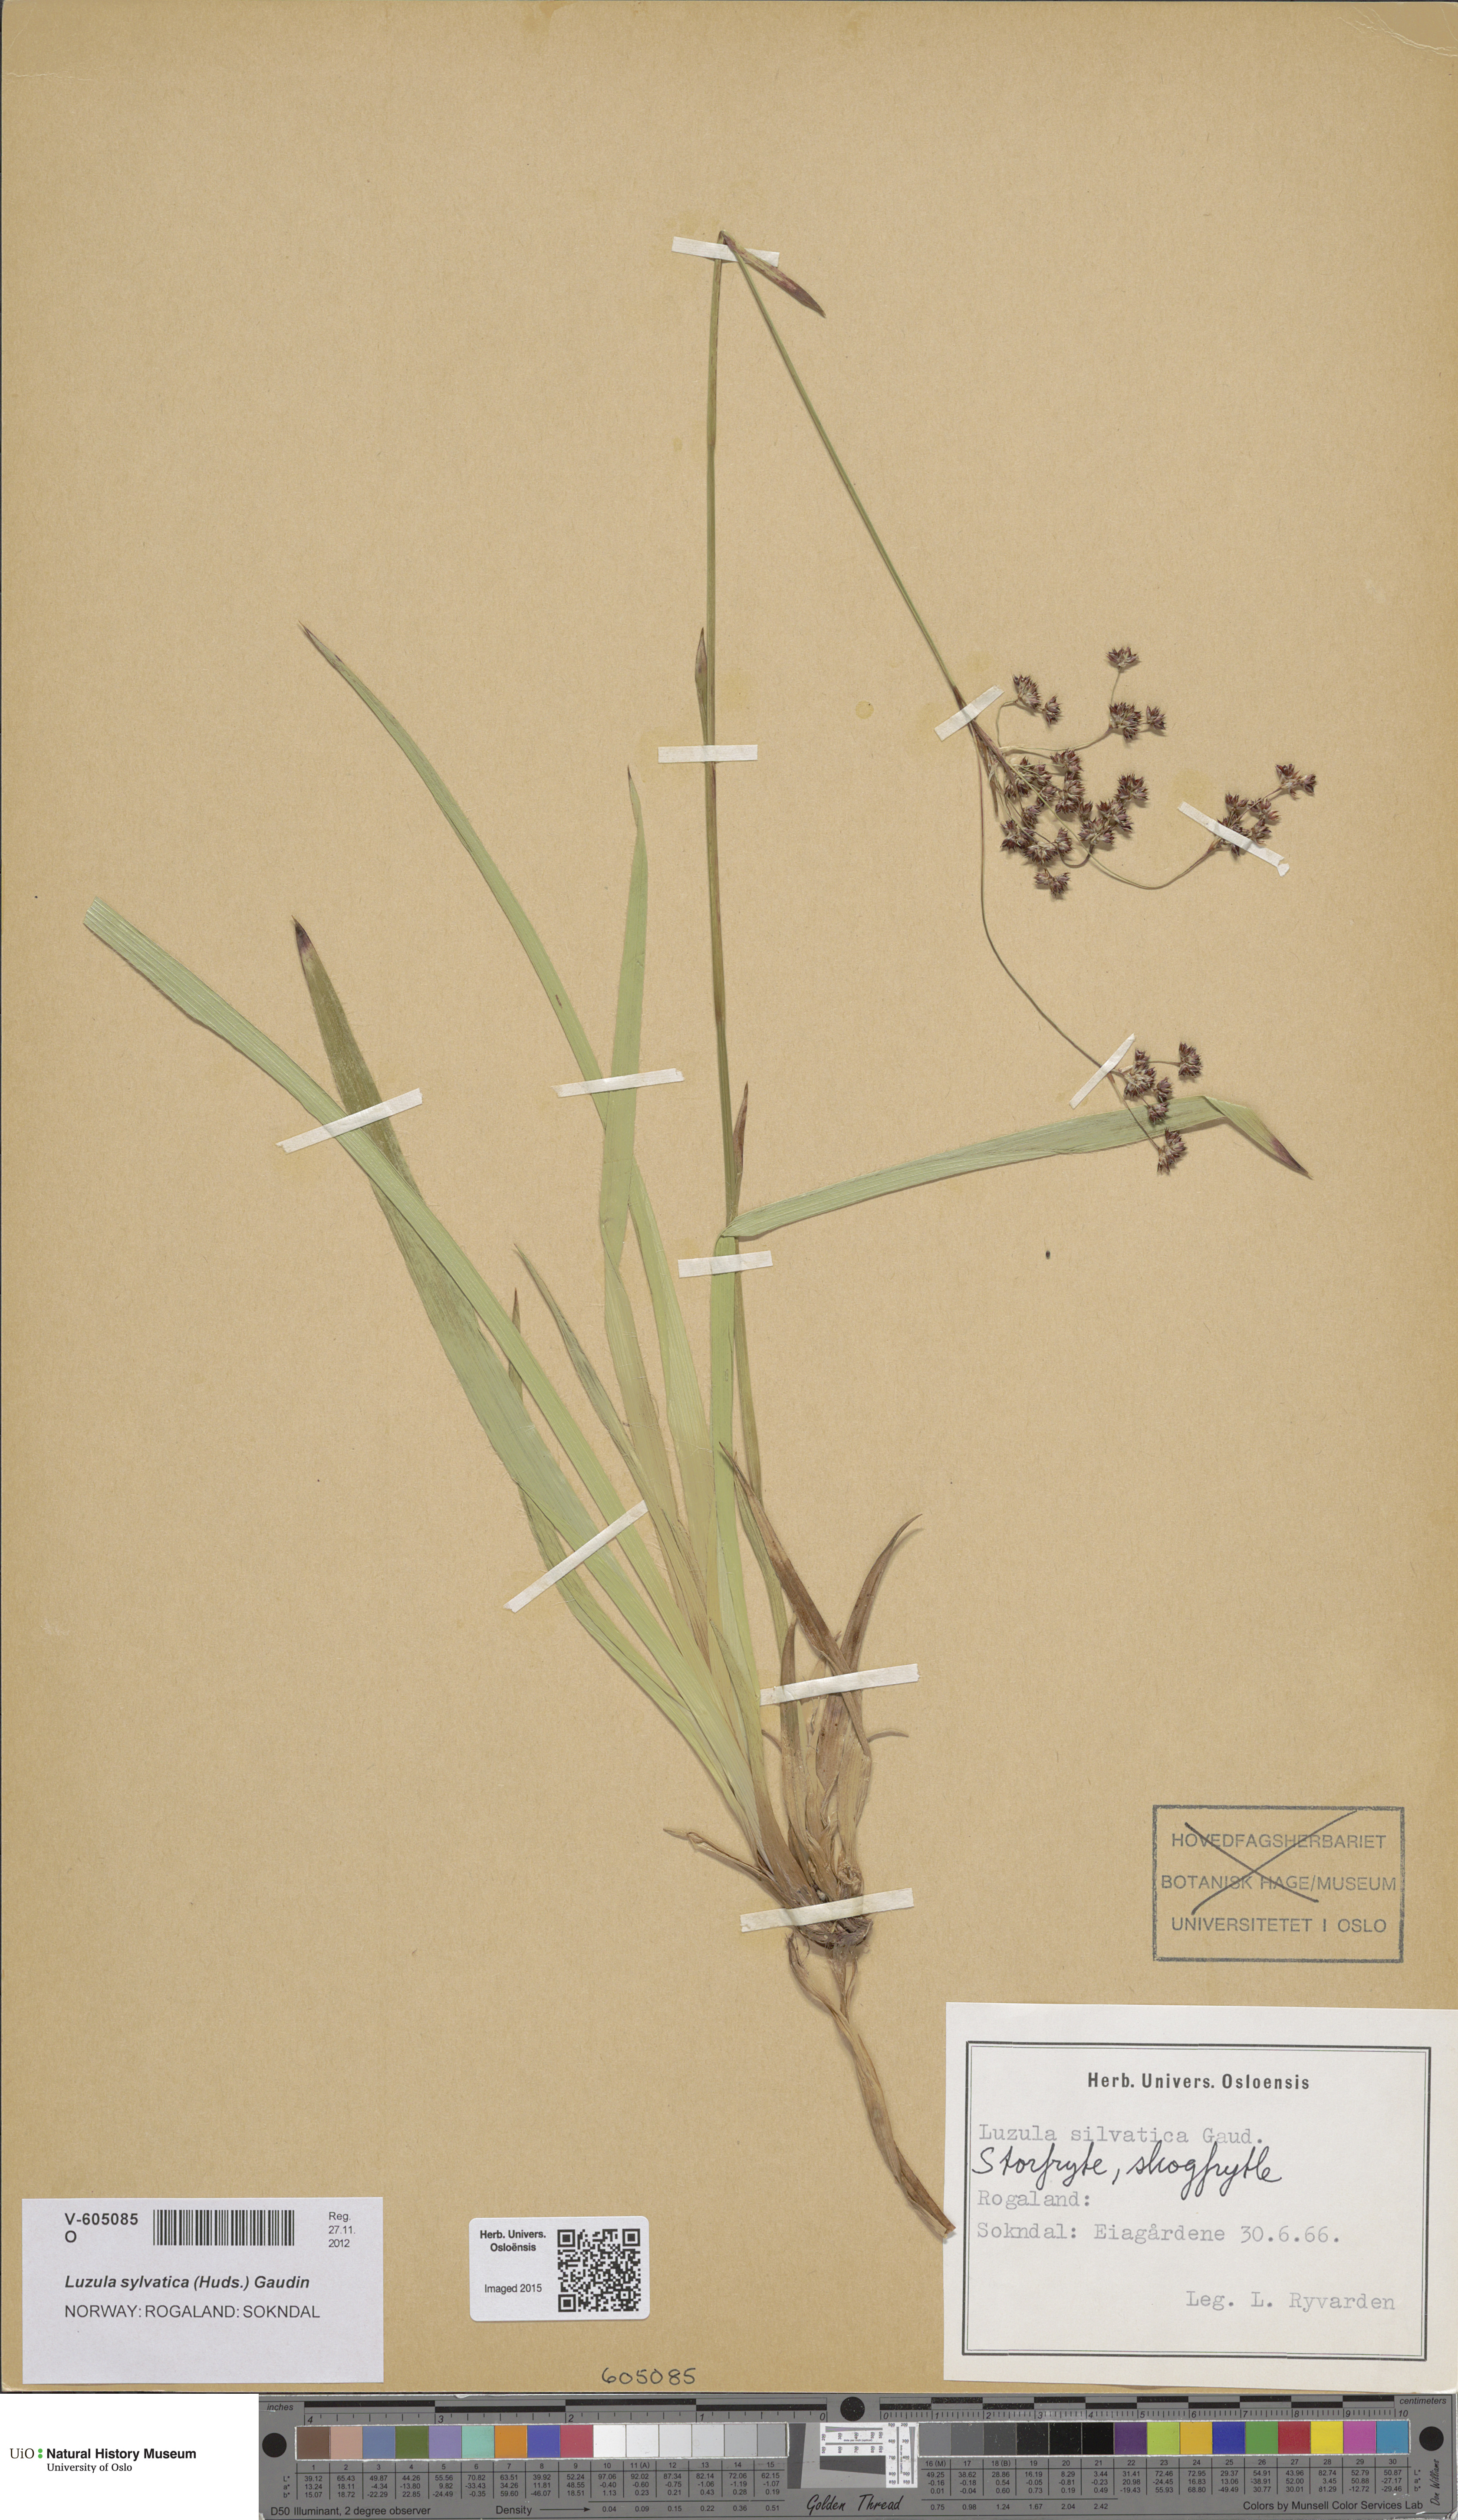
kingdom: Plantae
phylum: Tracheophyta
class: Liliopsida
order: Poales
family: Juncaceae
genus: Luzula
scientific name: Luzula sylvatica
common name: Great wood-rush
